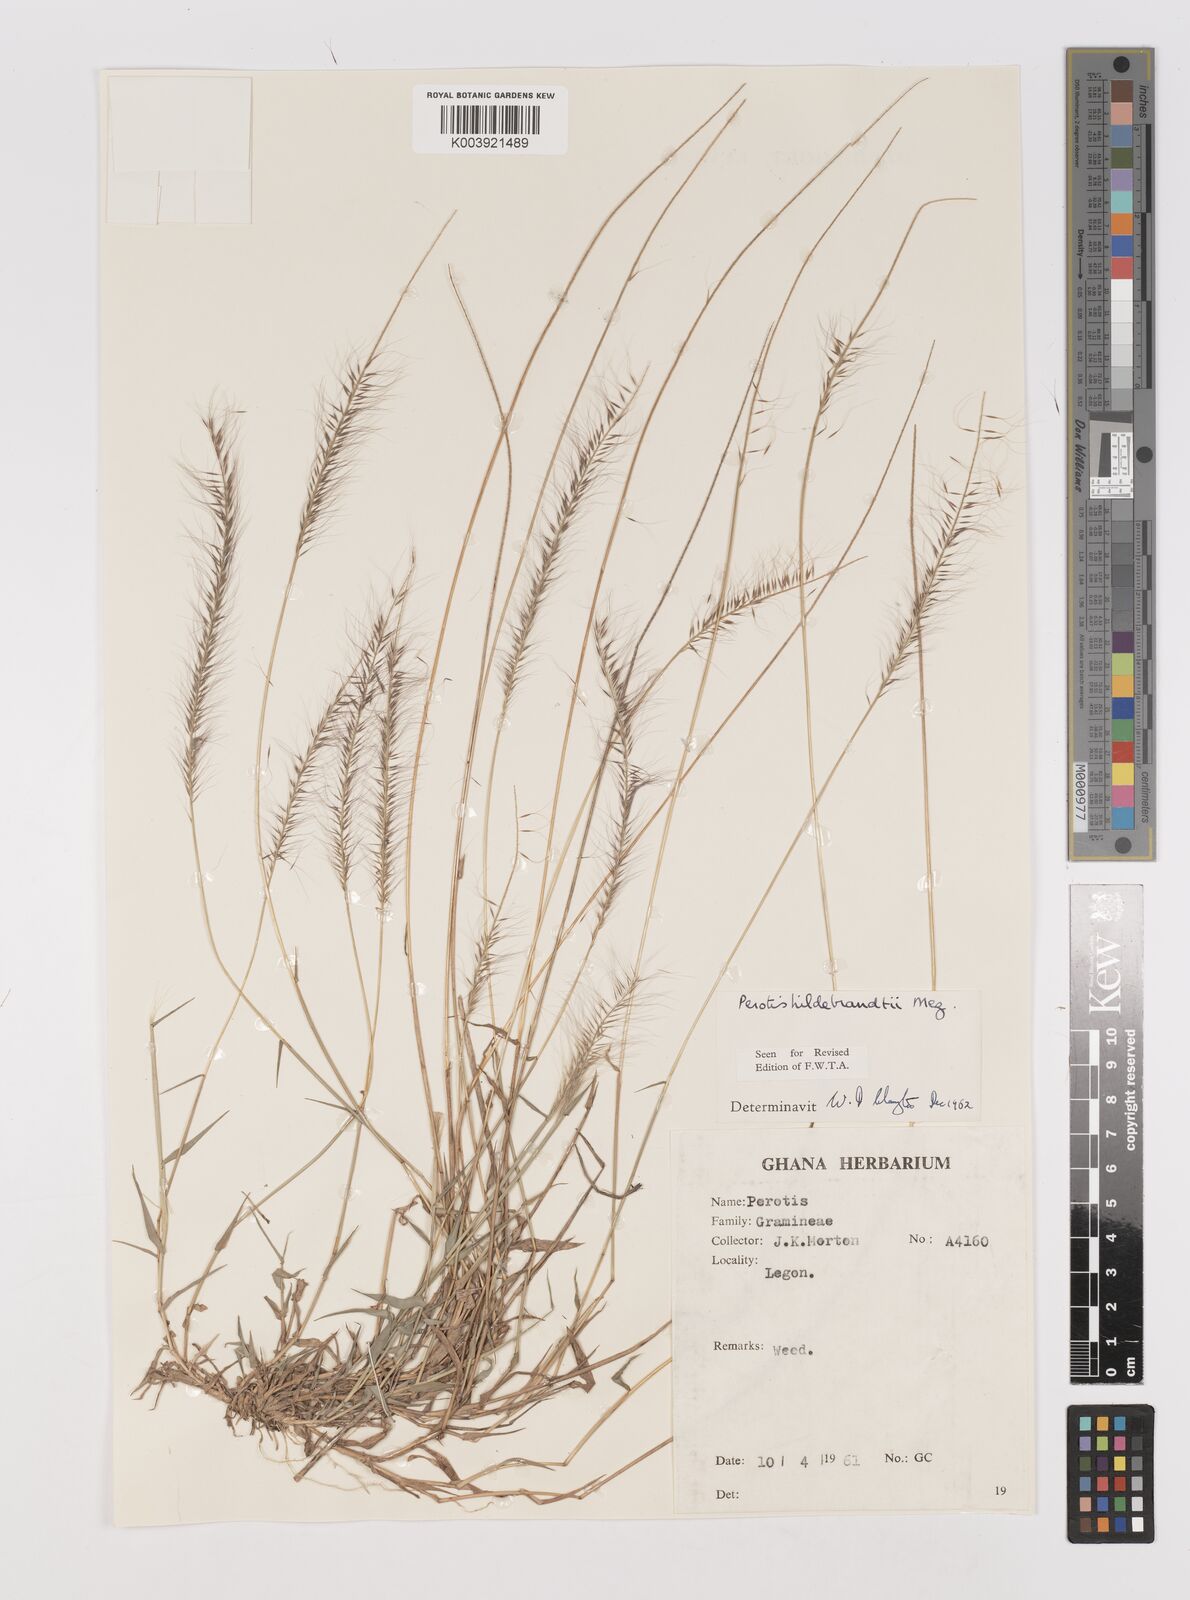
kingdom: Plantae
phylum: Tracheophyta
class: Liliopsida
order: Poales
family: Poaceae
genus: Perotis
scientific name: Perotis hildebrandtii
